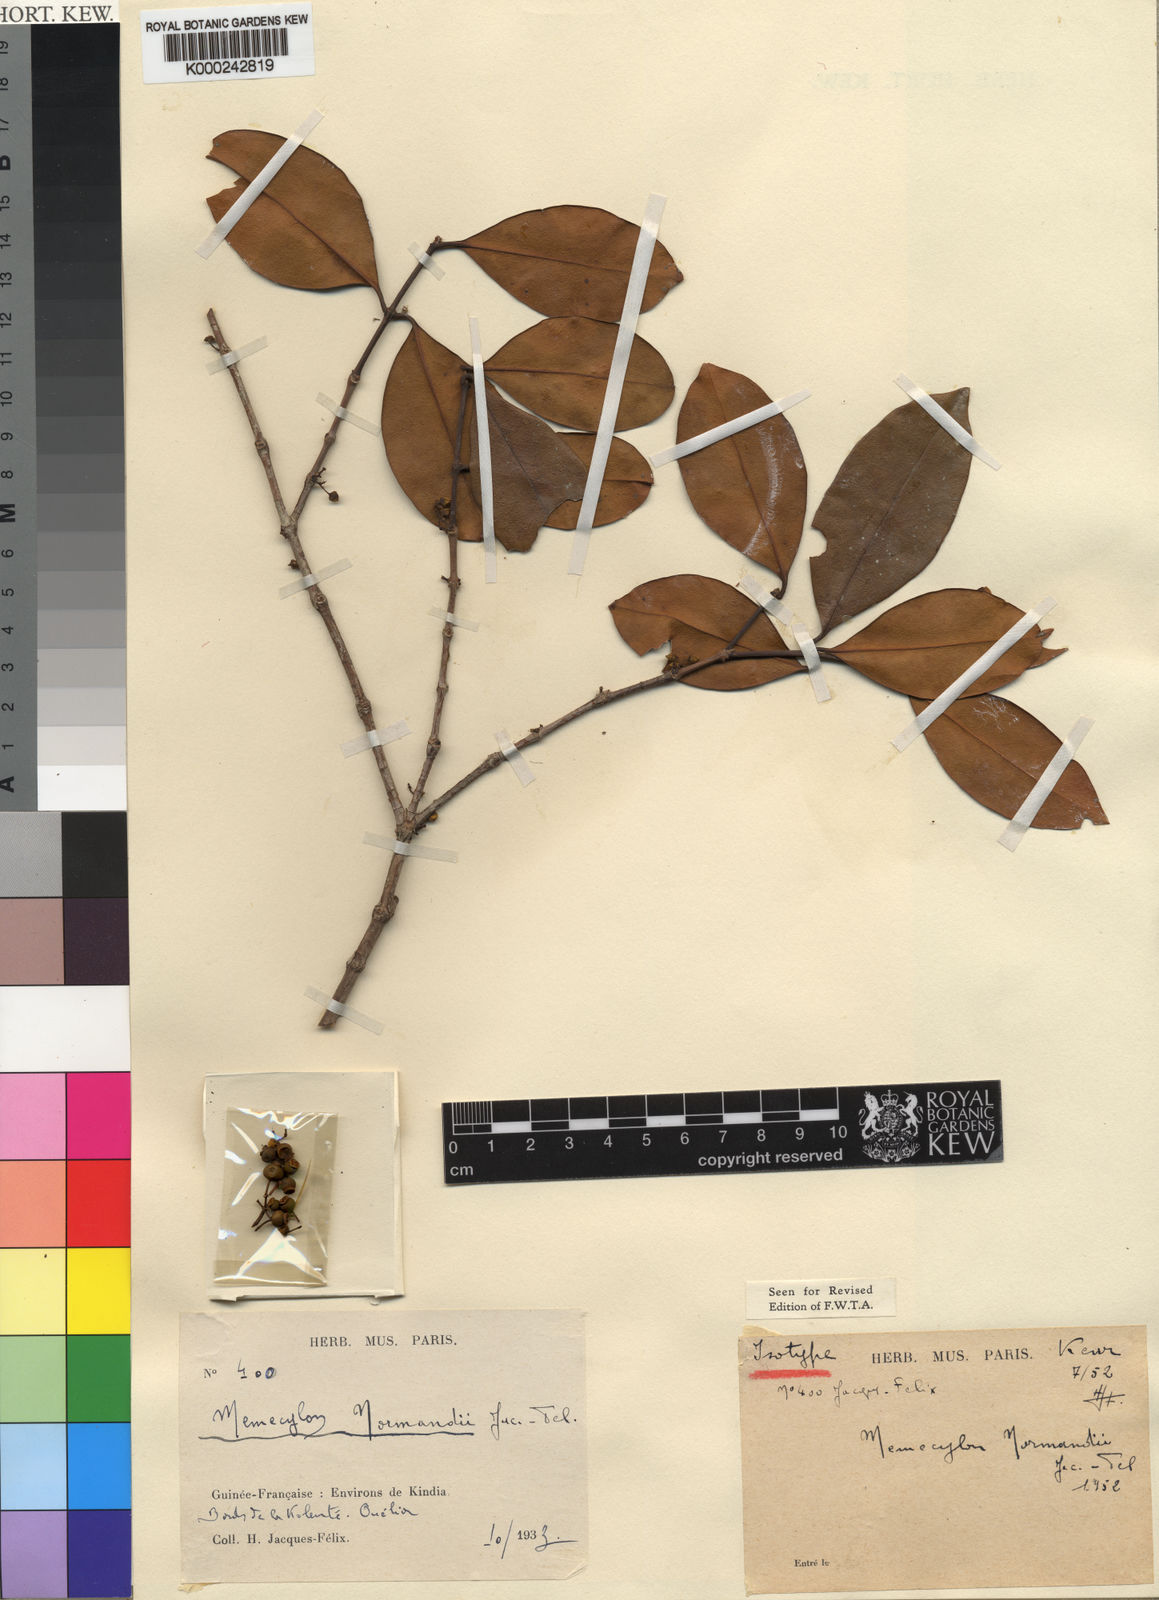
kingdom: Plantae
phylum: Tracheophyta
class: Magnoliopsida
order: Myrtales
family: Melastomataceae
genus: Memecylon
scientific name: Memecylon
